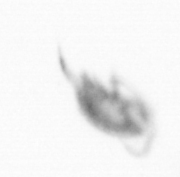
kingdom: Animalia
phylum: Arthropoda
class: Copepoda
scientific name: Copepoda
